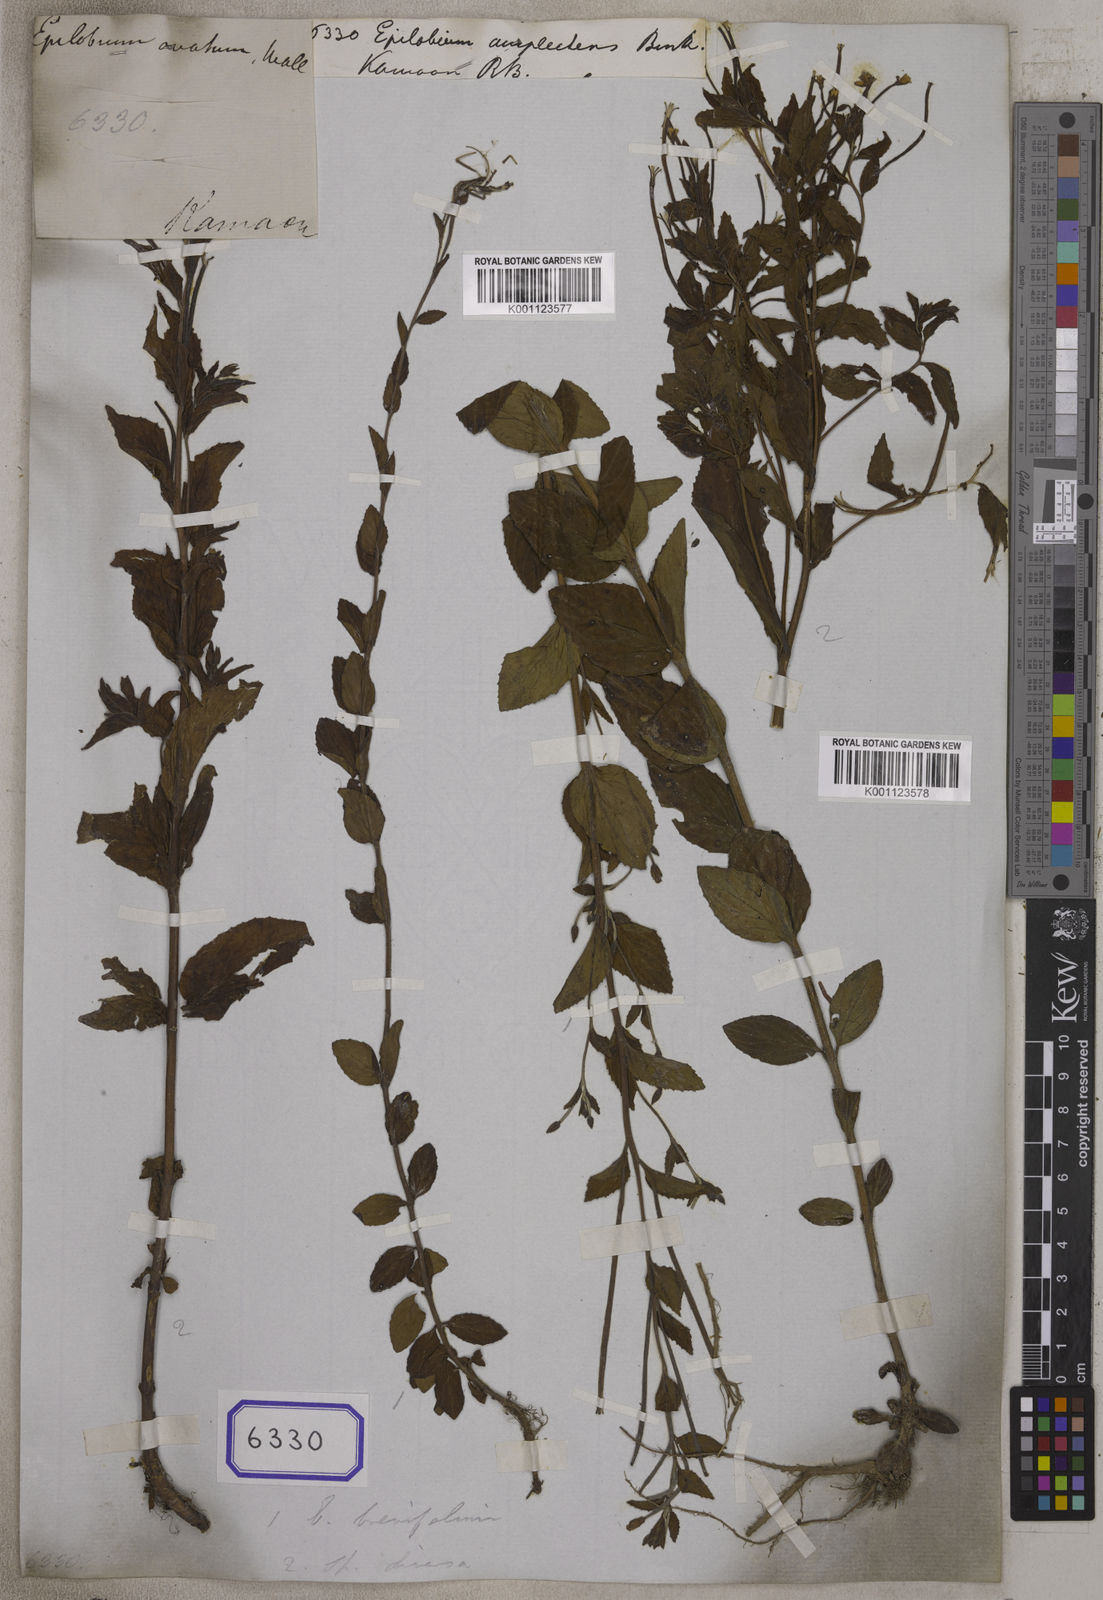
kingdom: Plantae
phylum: Tracheophyta
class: Magnoliopsida
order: Myrtales
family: Onagraceae
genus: Epilobium
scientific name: Epilobium
